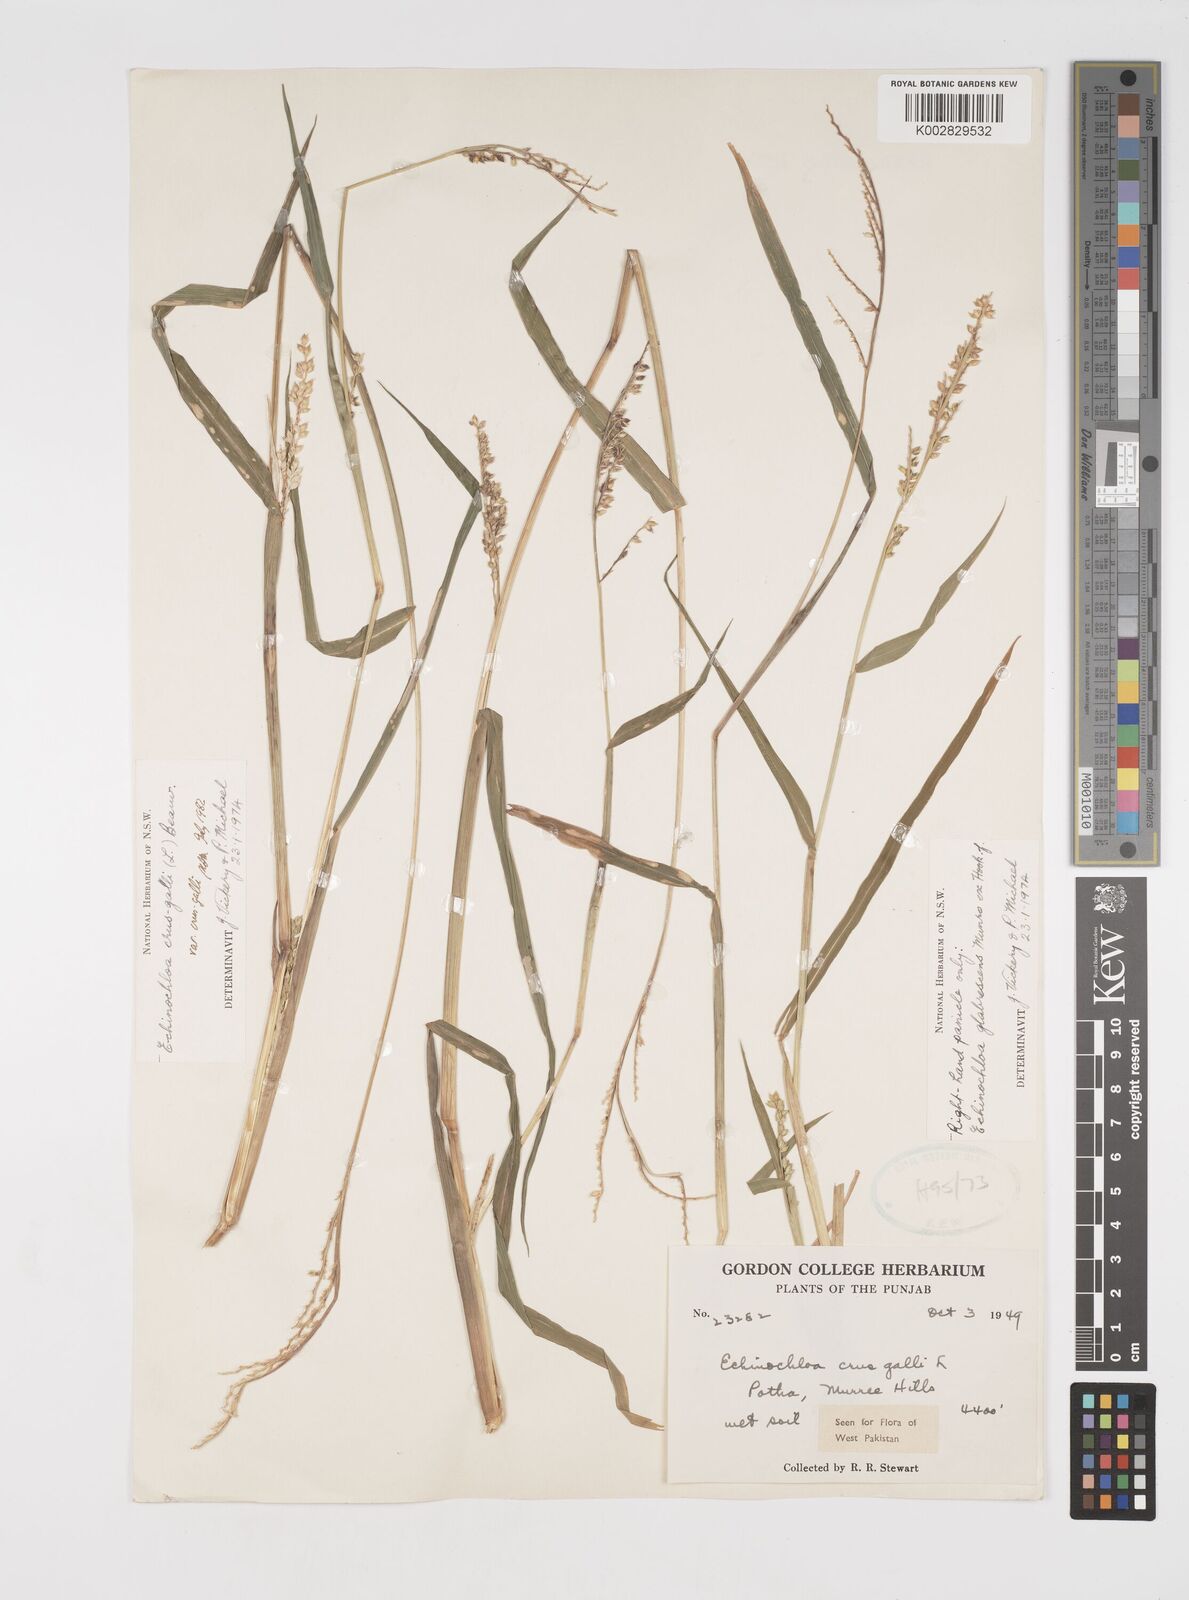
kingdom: Plantae
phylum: Tracheophyta
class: Liliopsida
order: Poales
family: Poaceae
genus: Echinochloa
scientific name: Echinochloa crus-galli
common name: Cockspur
